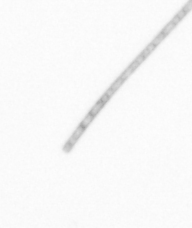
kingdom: Chromista
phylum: Ochrophyta
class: Bacillariophyceae
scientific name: Bacillariophyceae
